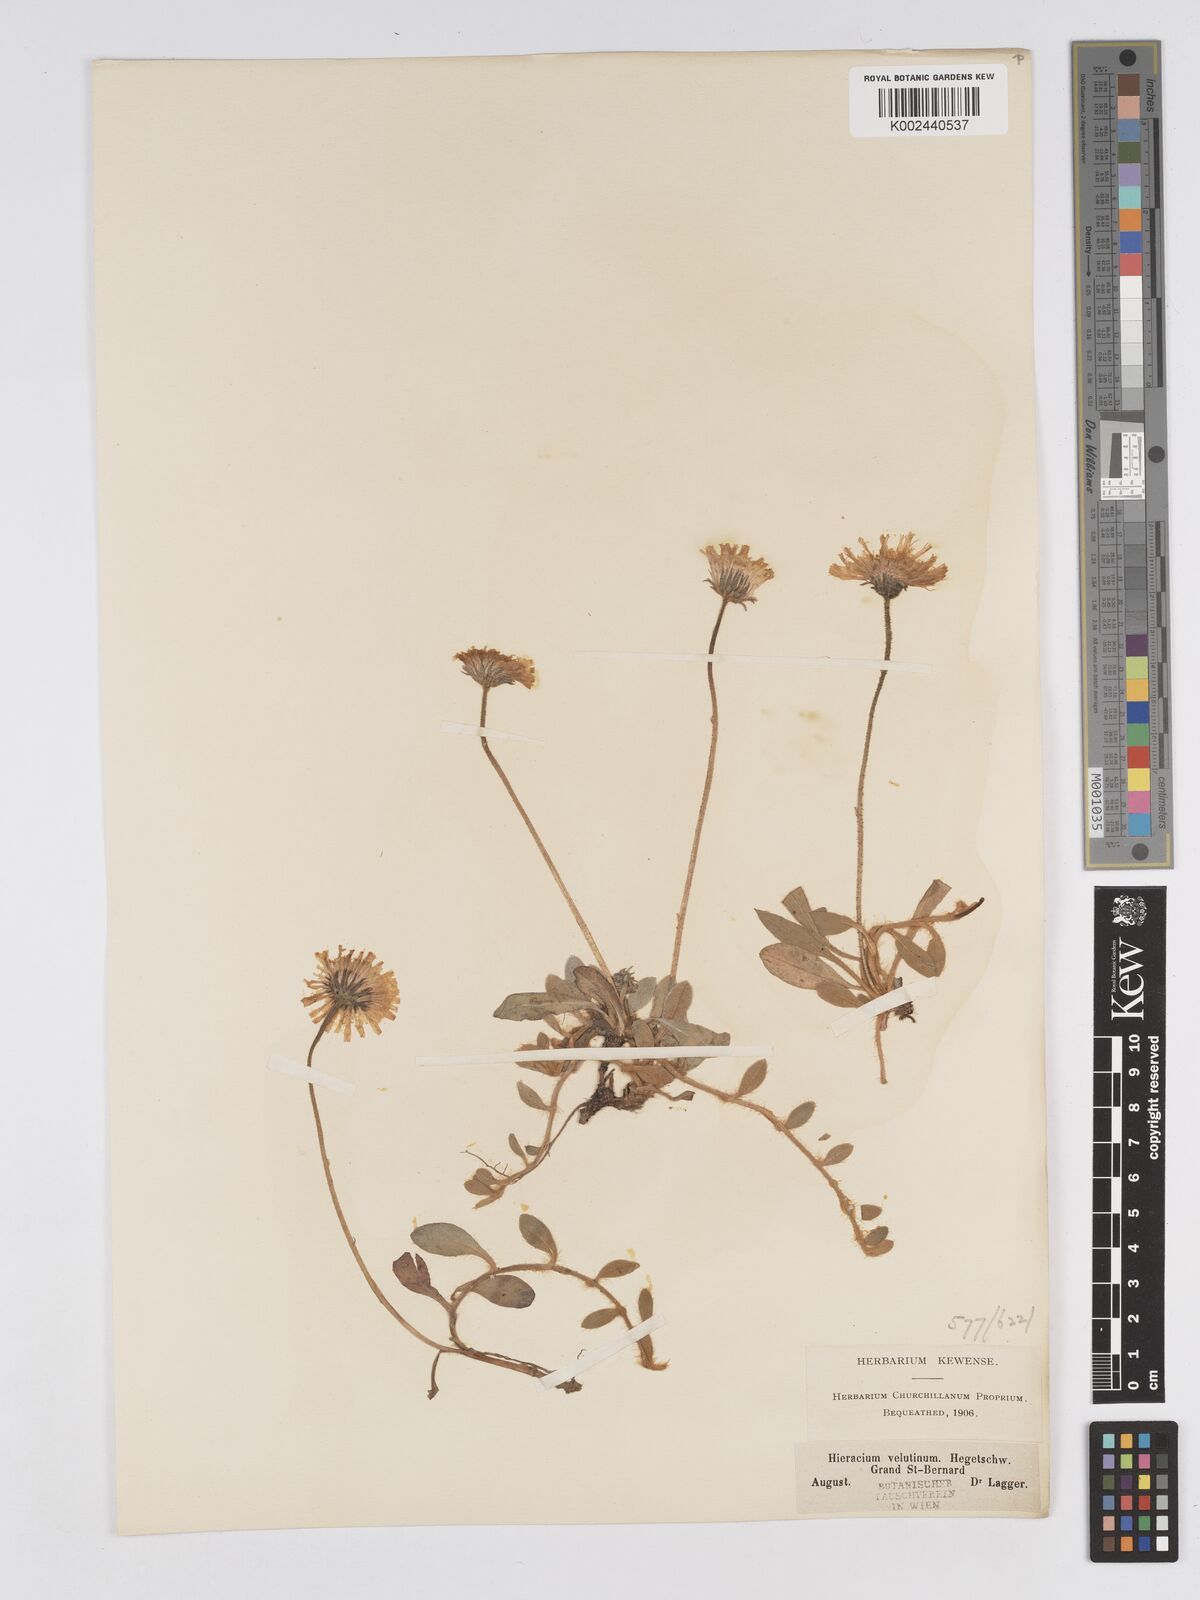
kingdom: Plantae
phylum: Tracheophyta
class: Magnoliopsida
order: Asterales
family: Asteraceae
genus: Pilosella
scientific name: Pilosella velutina
